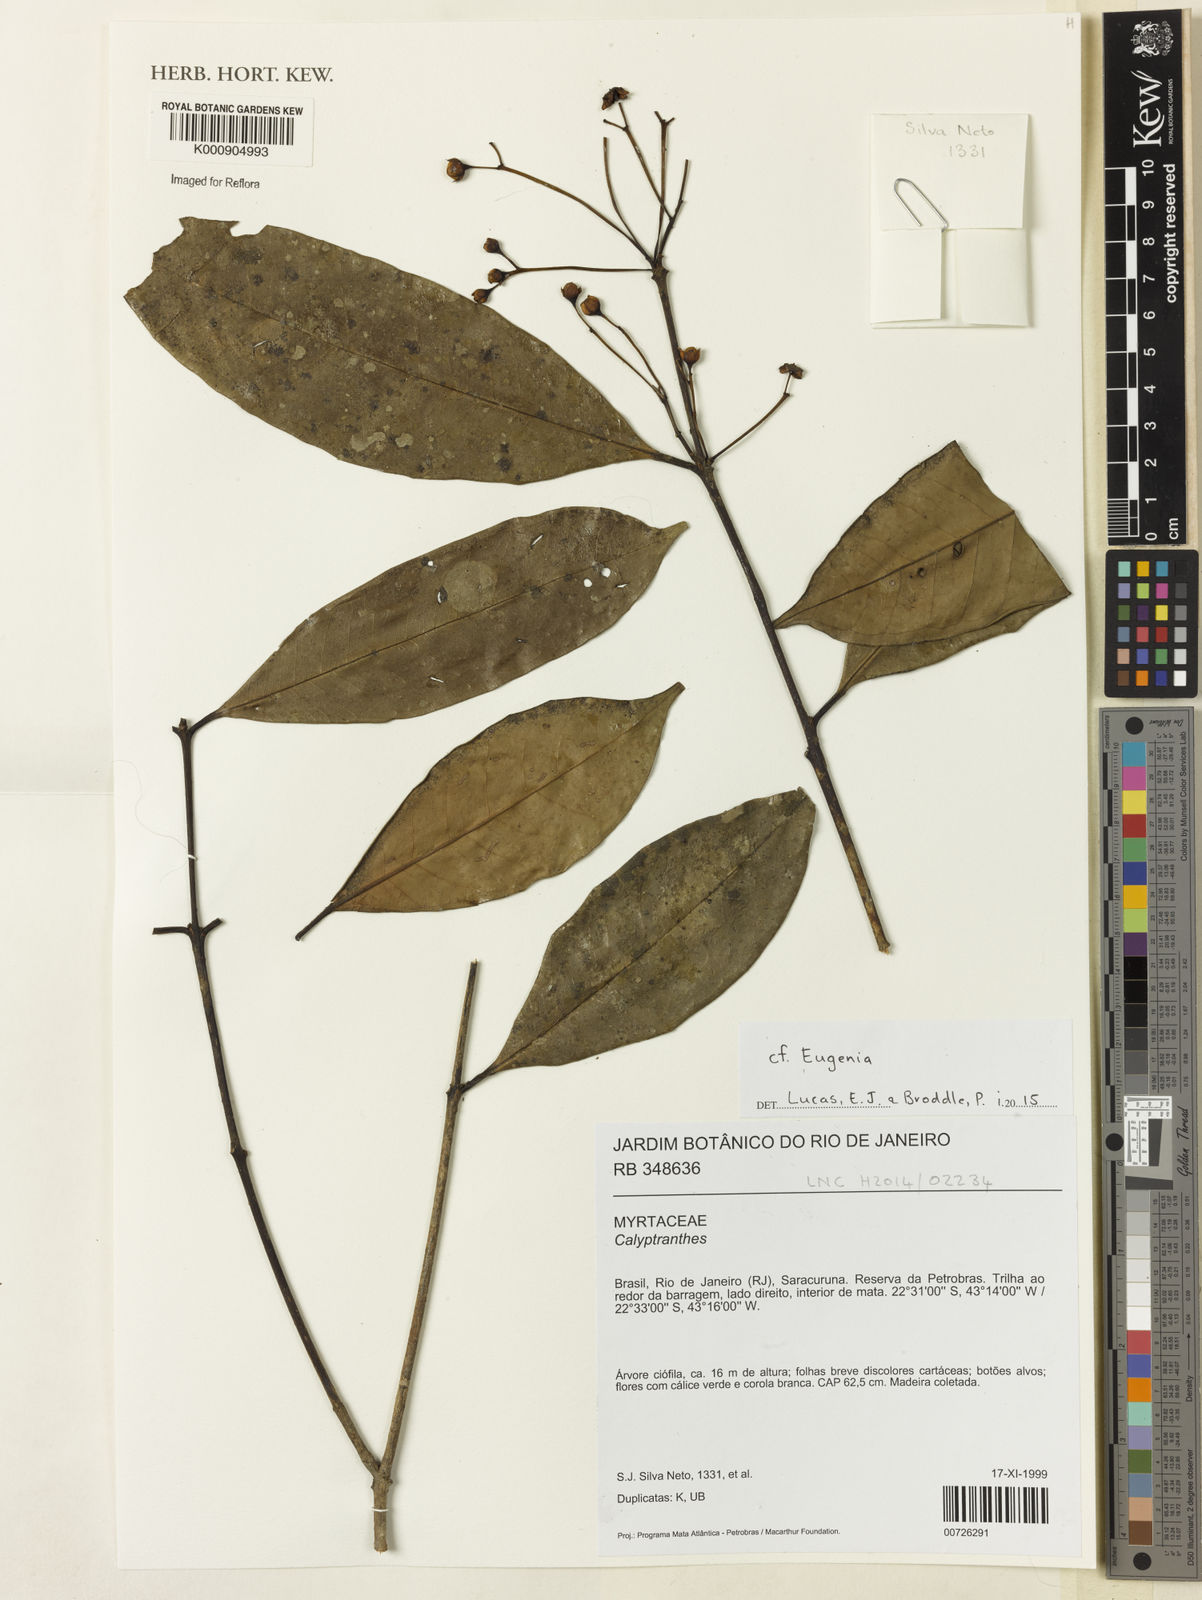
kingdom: Plantae
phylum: Tracheophyta
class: Magnoliopsida
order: Myrtales
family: Myrtaceae
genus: Calycorectes
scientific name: Calycorectes acutatus
